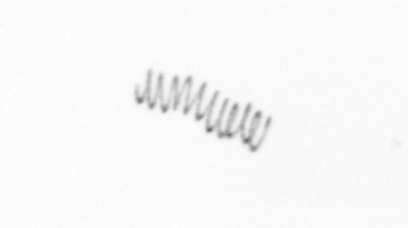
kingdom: Chromista
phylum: Ochrophyta
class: Bacillariophyceae
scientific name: Bacillariophyceae
